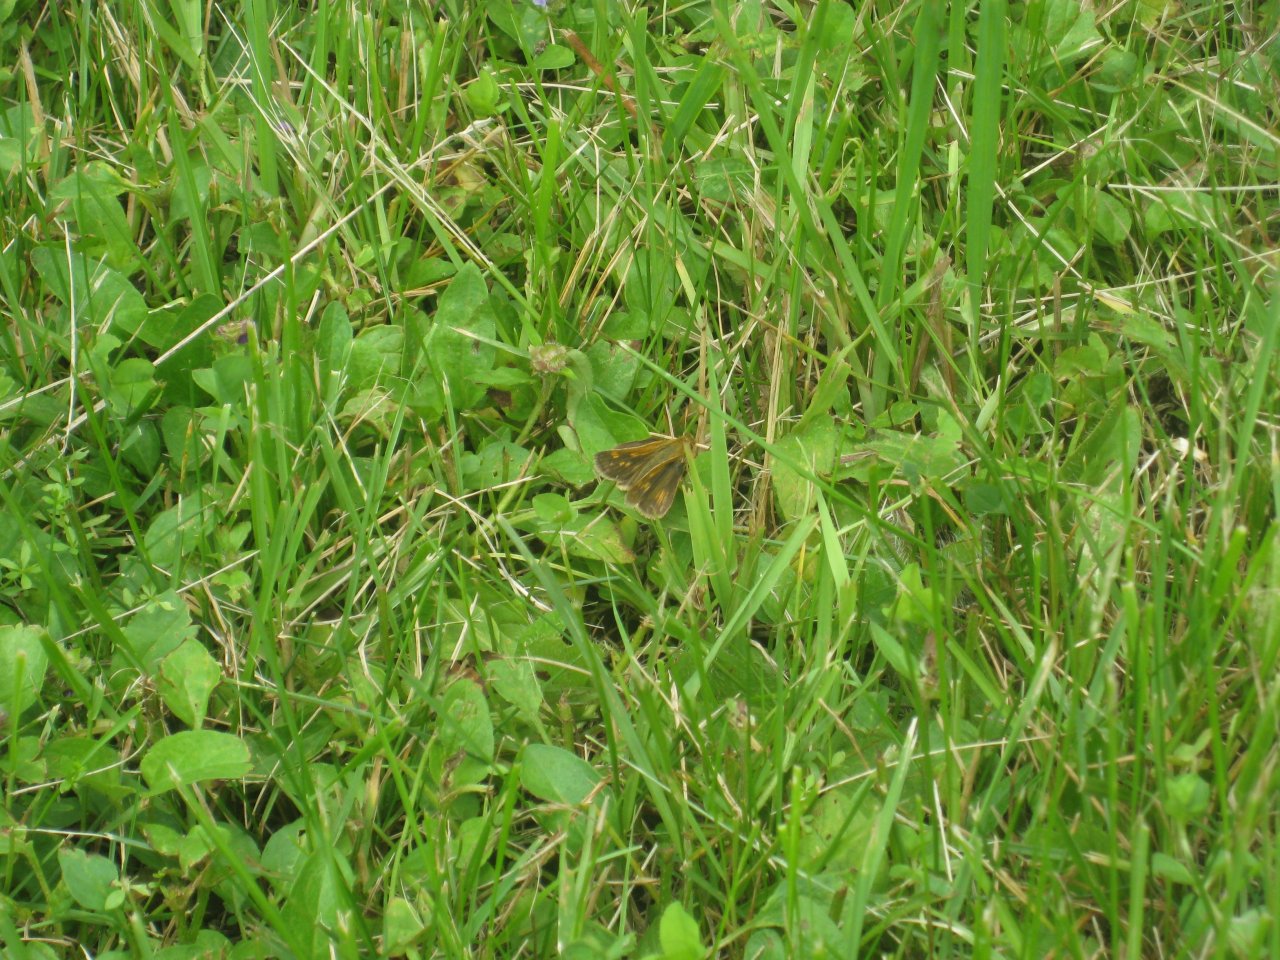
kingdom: Animalia
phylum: Arthropoda
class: Insecta
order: Lepidoptera
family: Hesperiidae
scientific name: Hesperiidae
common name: Skippers
